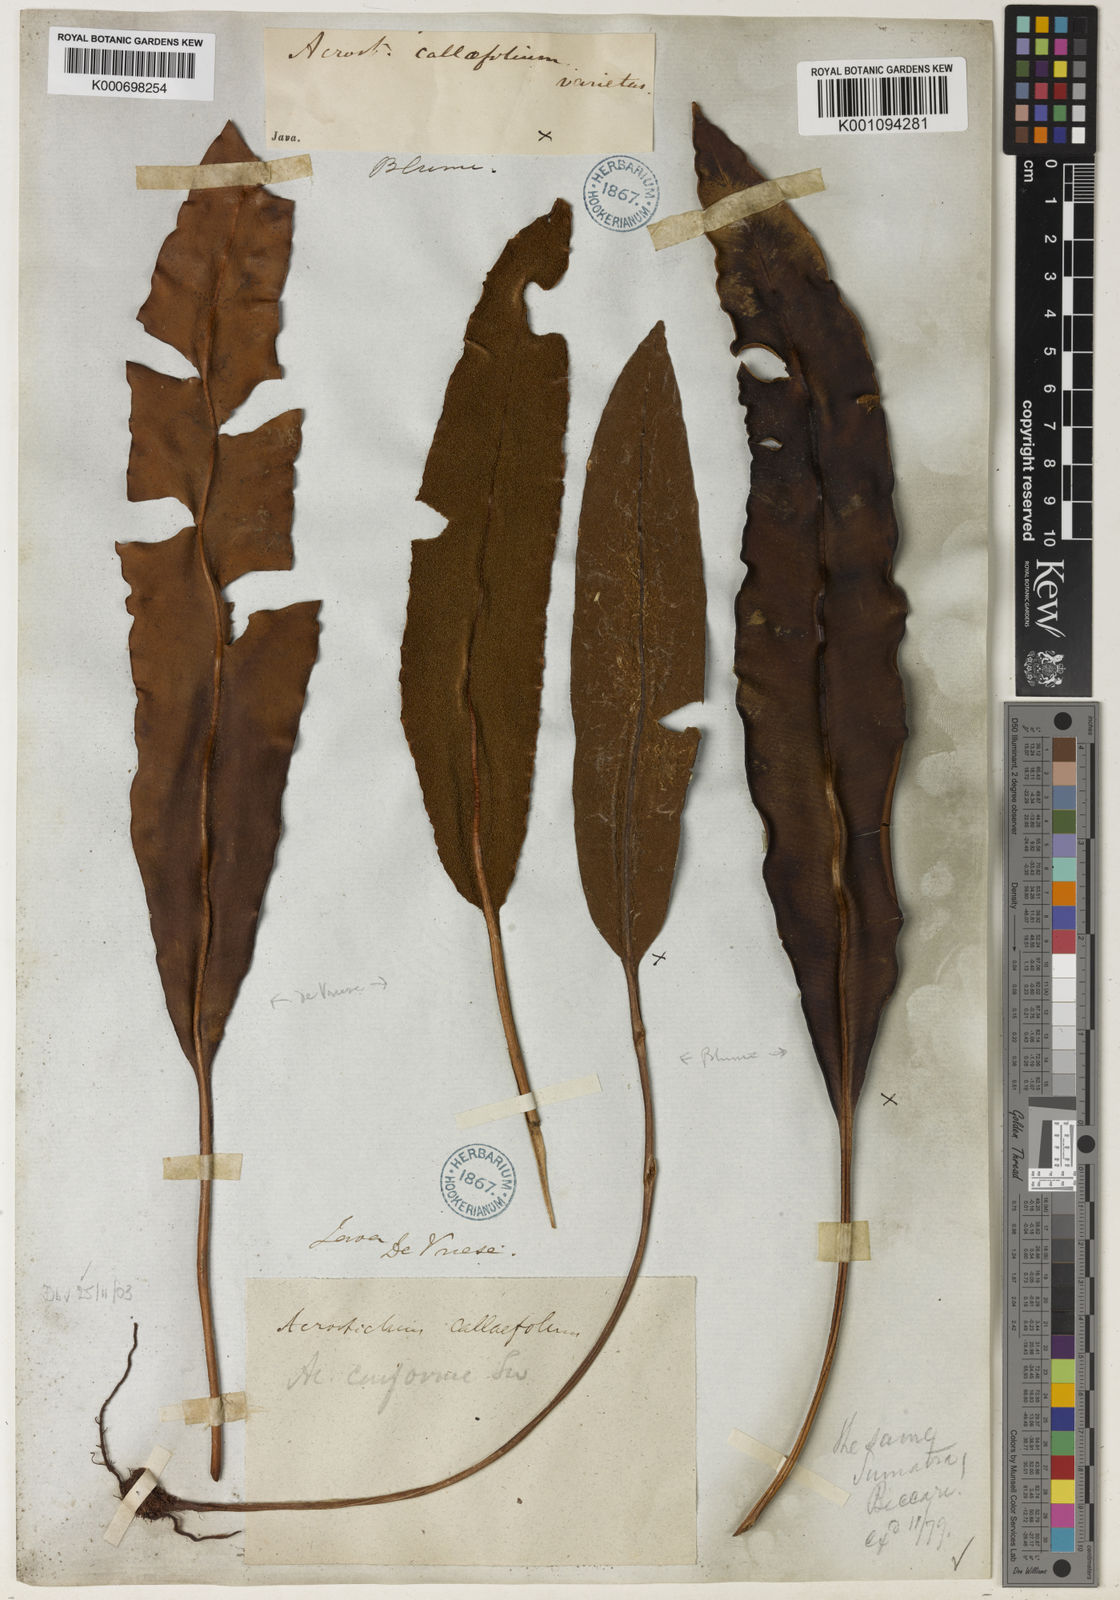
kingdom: Plantae
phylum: Tracheophyta
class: Polypodiopsida
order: Polypodiales
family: Dryopteridaceae
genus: Elaphoglossum
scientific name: Elaphoglossum
